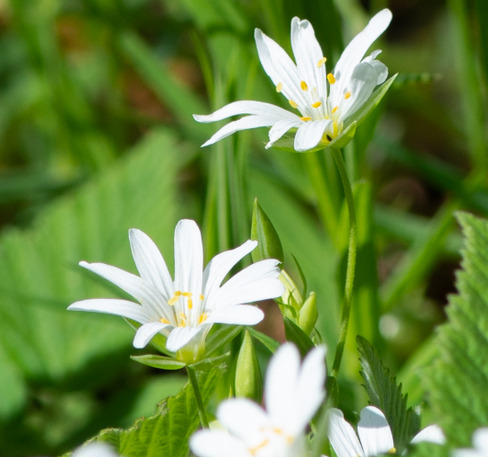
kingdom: Plantae
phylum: Tracheophyta
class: Magnoliopsida
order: Caryophyllales
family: Caryophyllaceae
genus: Rabelera
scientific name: Rabelera holostea
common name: Stor fladstjerne
